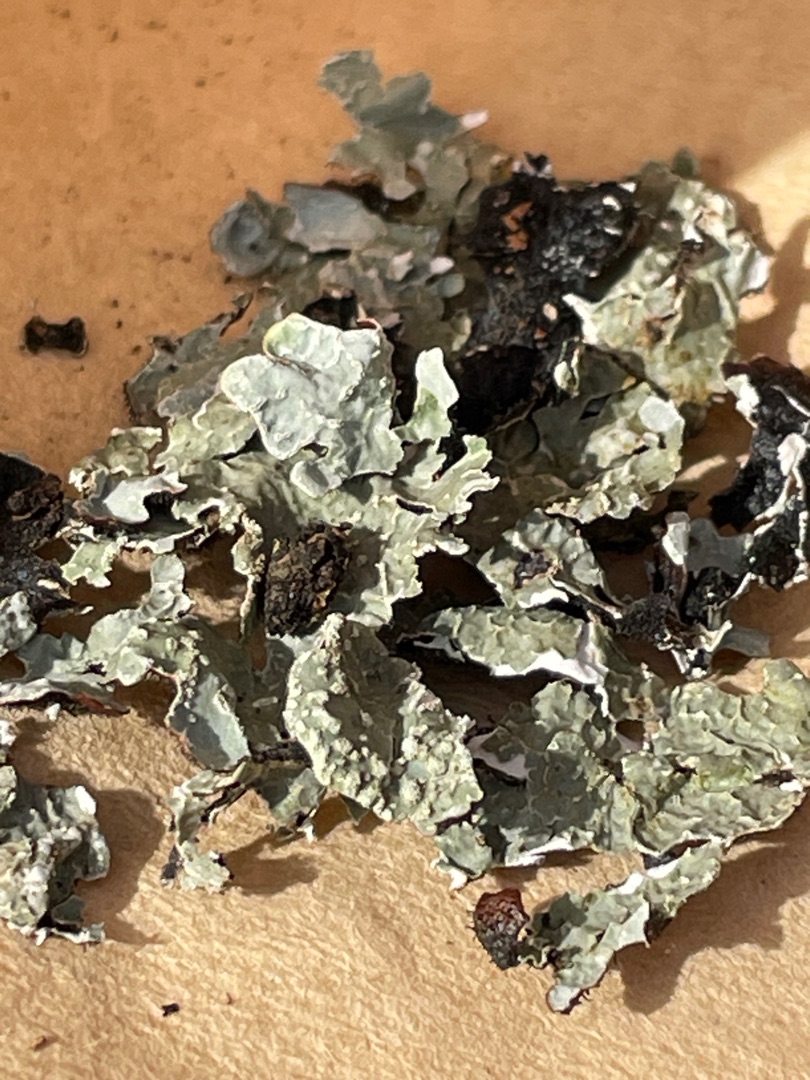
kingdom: Fungi
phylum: Ascomycota
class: Lecanoromycetes
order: Lecanorales
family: Parmeliaceae
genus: Parmelia
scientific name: Parmelia sulcata
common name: Rynket skållav
